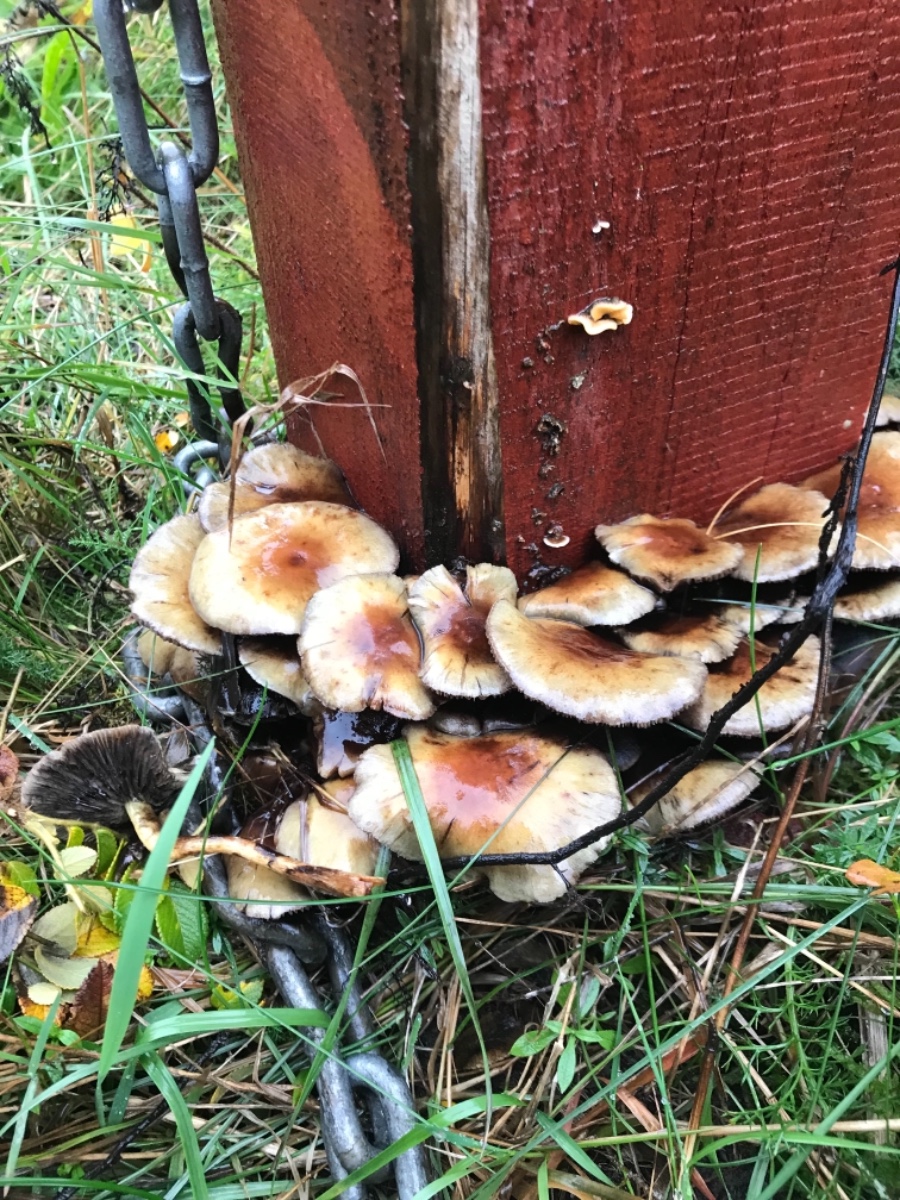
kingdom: Fungi
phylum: Basidiomycota
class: Agaricomycetes
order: Agaricales
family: Strophariaceae
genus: Hypholoma
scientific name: Hypholoma fasciculare
